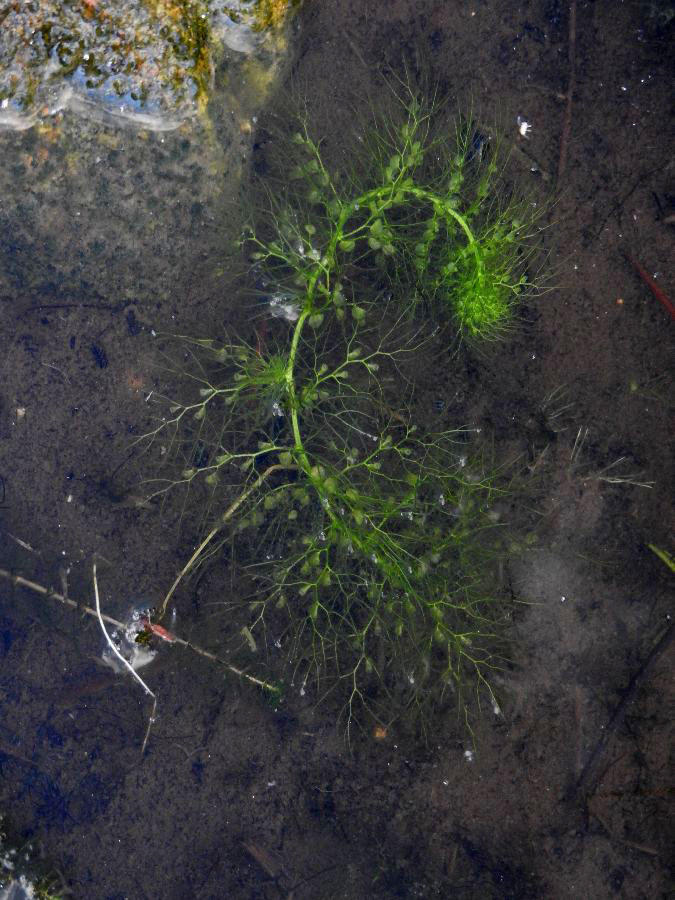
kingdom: Plantae
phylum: Tracheophyta
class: Magnoliopsida
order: Lamiales
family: Lentibulariaceae
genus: Utricularia
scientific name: Utricularia vulgaris
